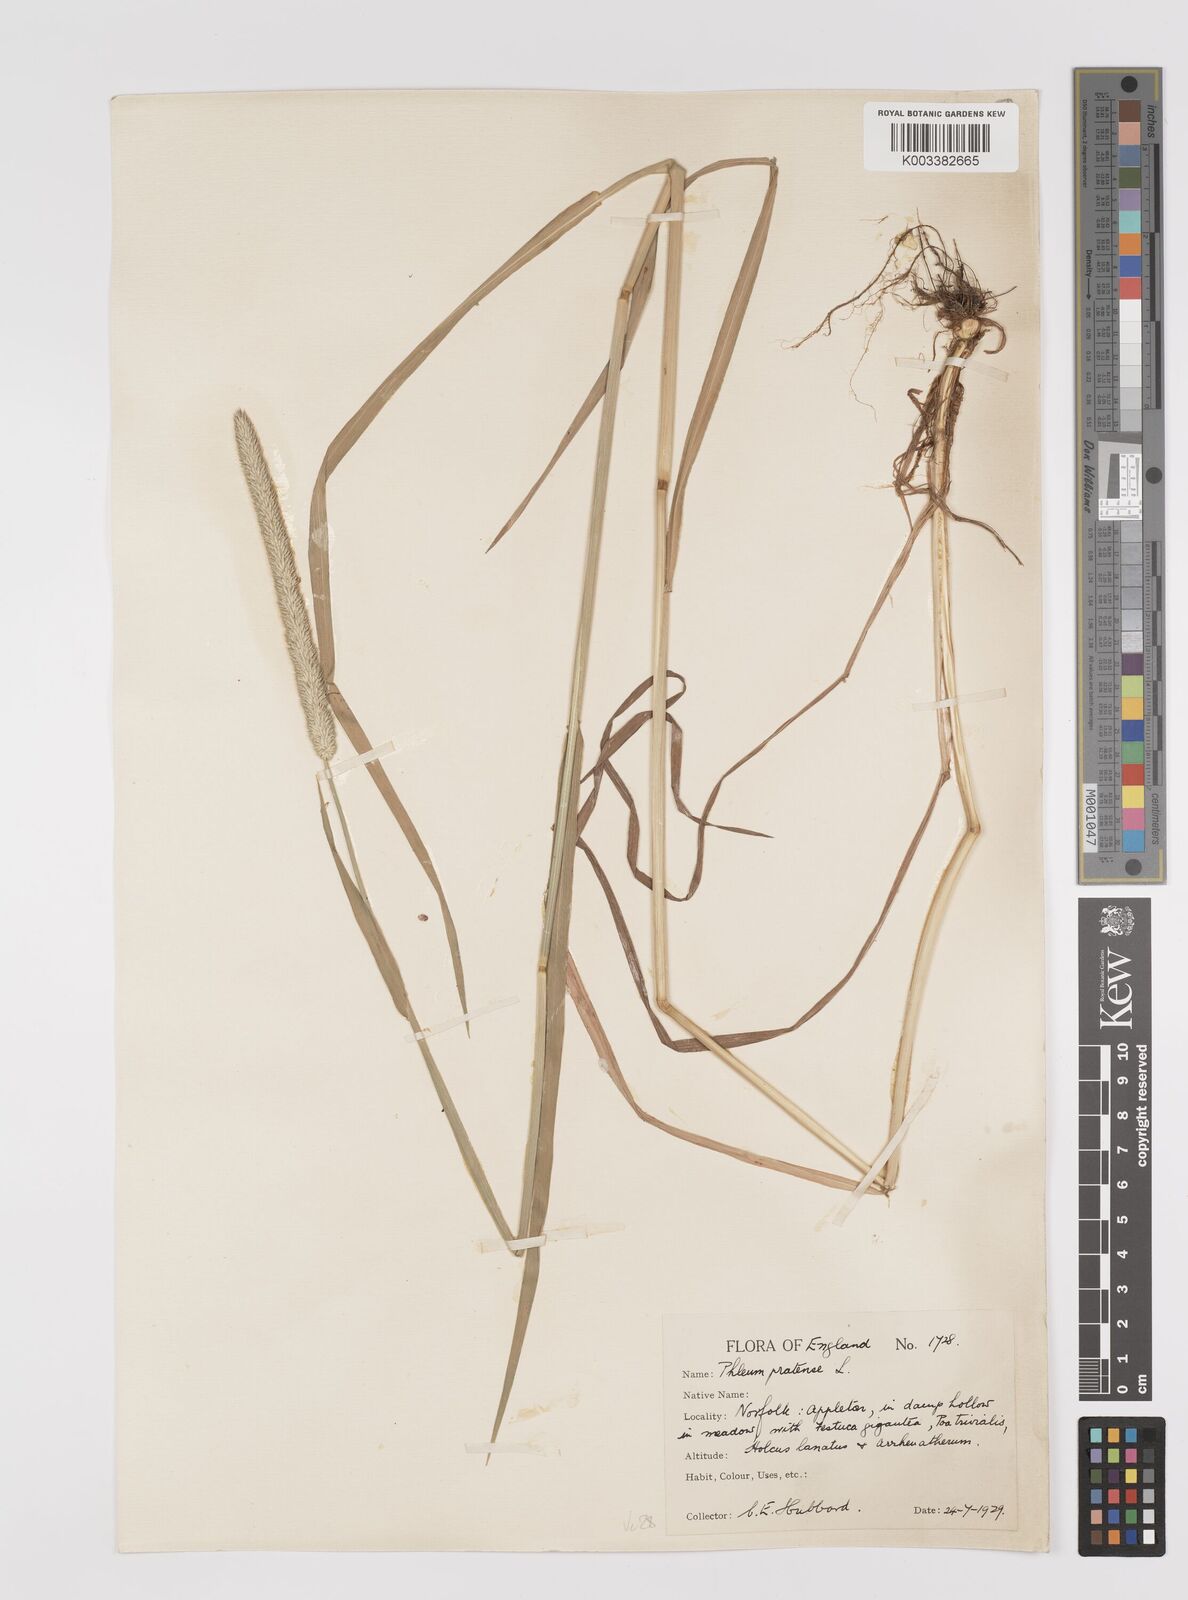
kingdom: Plantae
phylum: Tracheophyta
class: Liliopsida
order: Poales
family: Poaceae
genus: Phleum
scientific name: Phleum pratense
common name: Timothy grass
